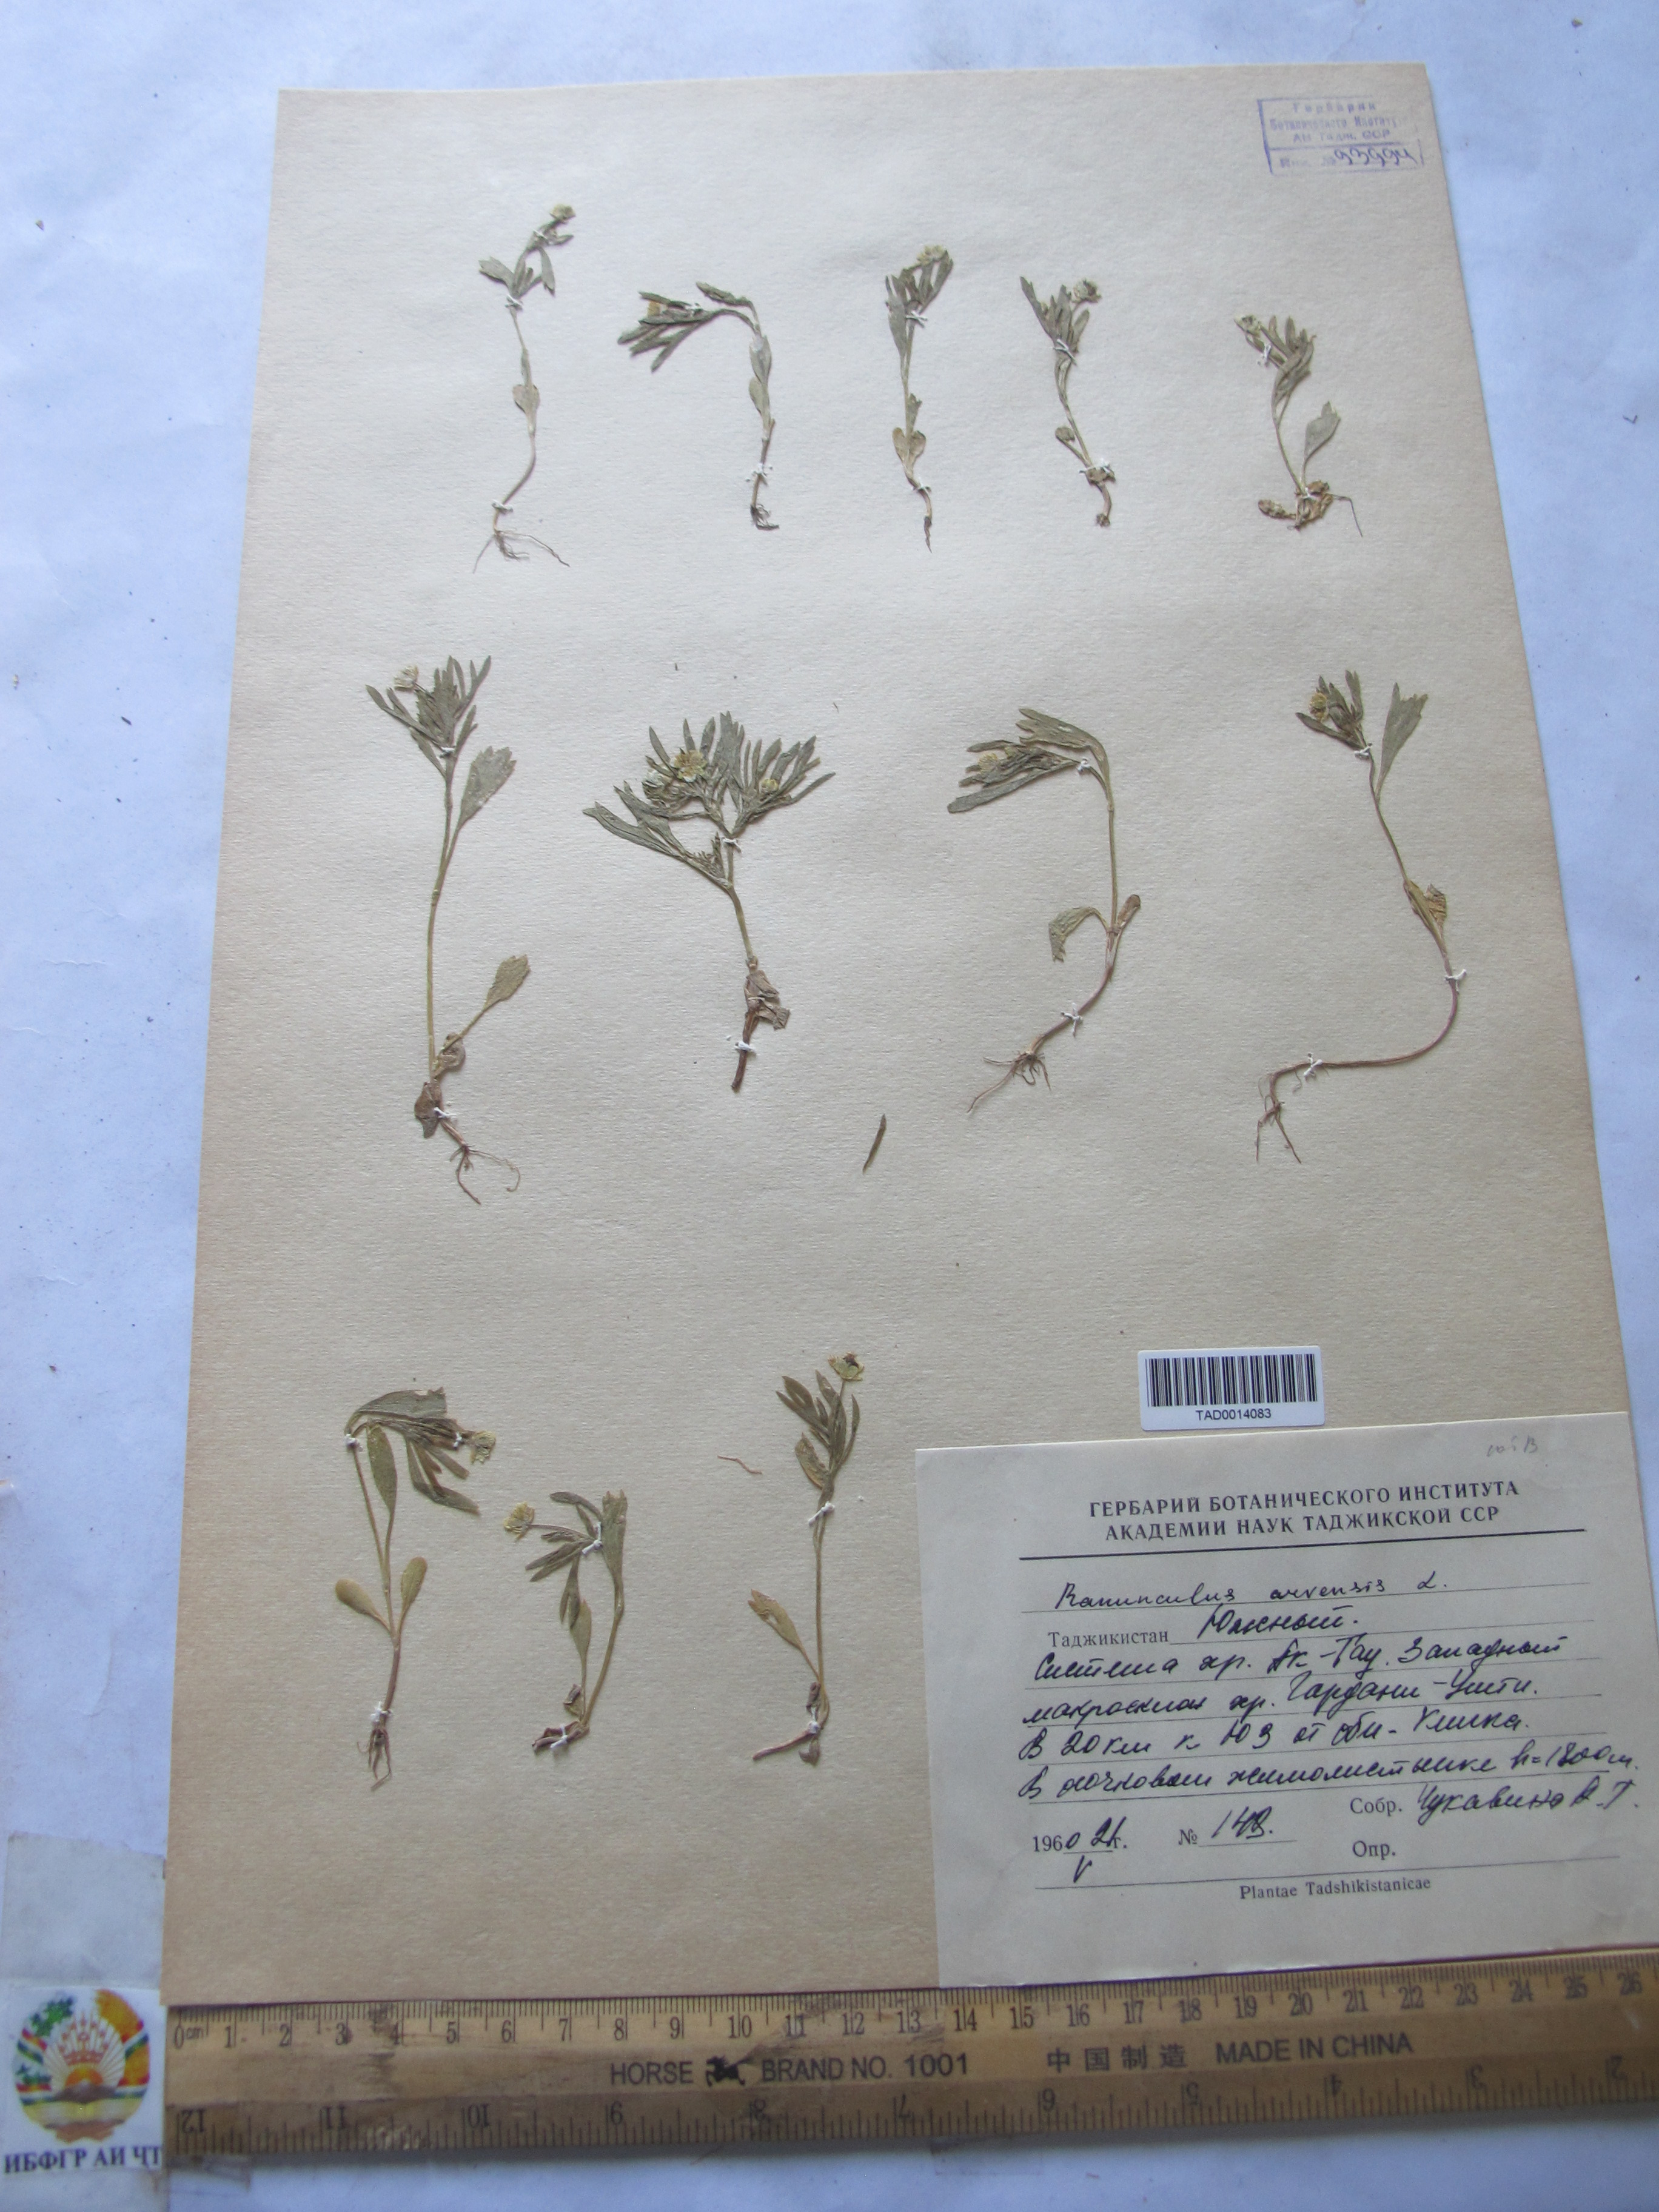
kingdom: Plantae
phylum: Tracheophyta
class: Magnoliopsida
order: Ranunculales
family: Ranunculaceae
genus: Ranunculus
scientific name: Ranunculus arvensis
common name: Corn buttercup
